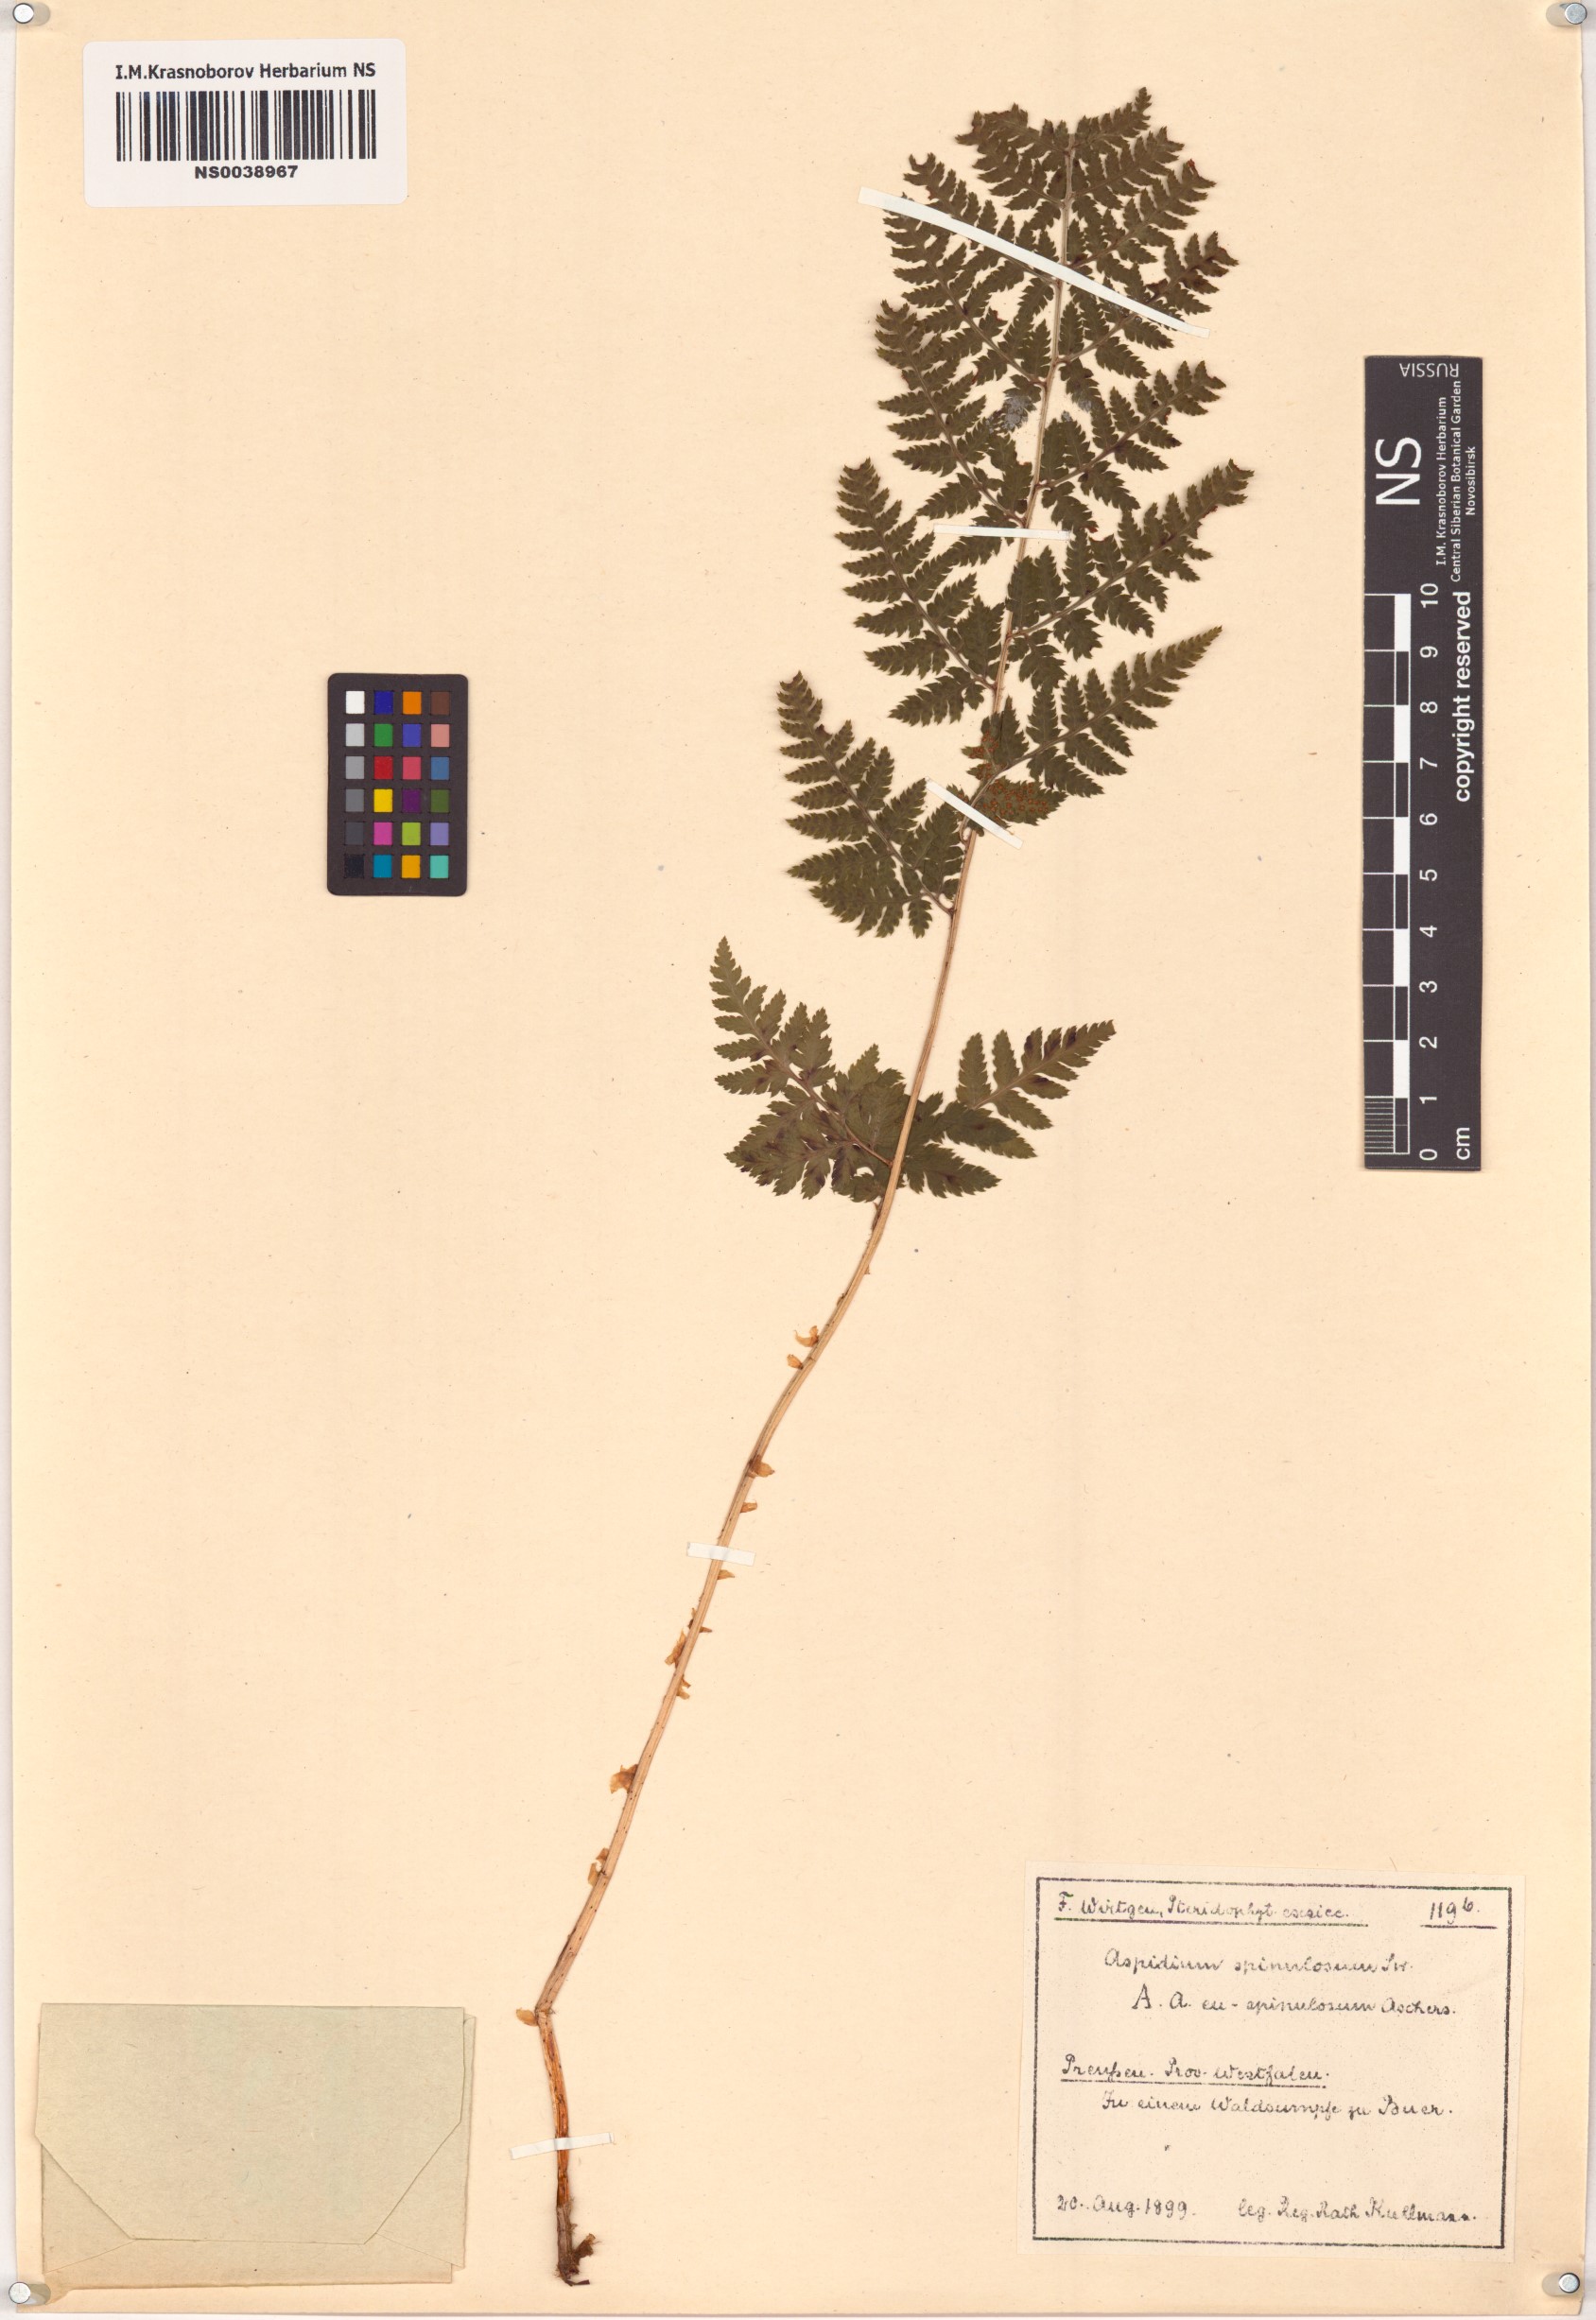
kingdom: Plantae
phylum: Tracheophyta
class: Polypodiopsida
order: Polypodiales
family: Dryopteridaceae
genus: Dryopteris
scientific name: Dryopteris carthusiana
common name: Narrow buckler-fern
